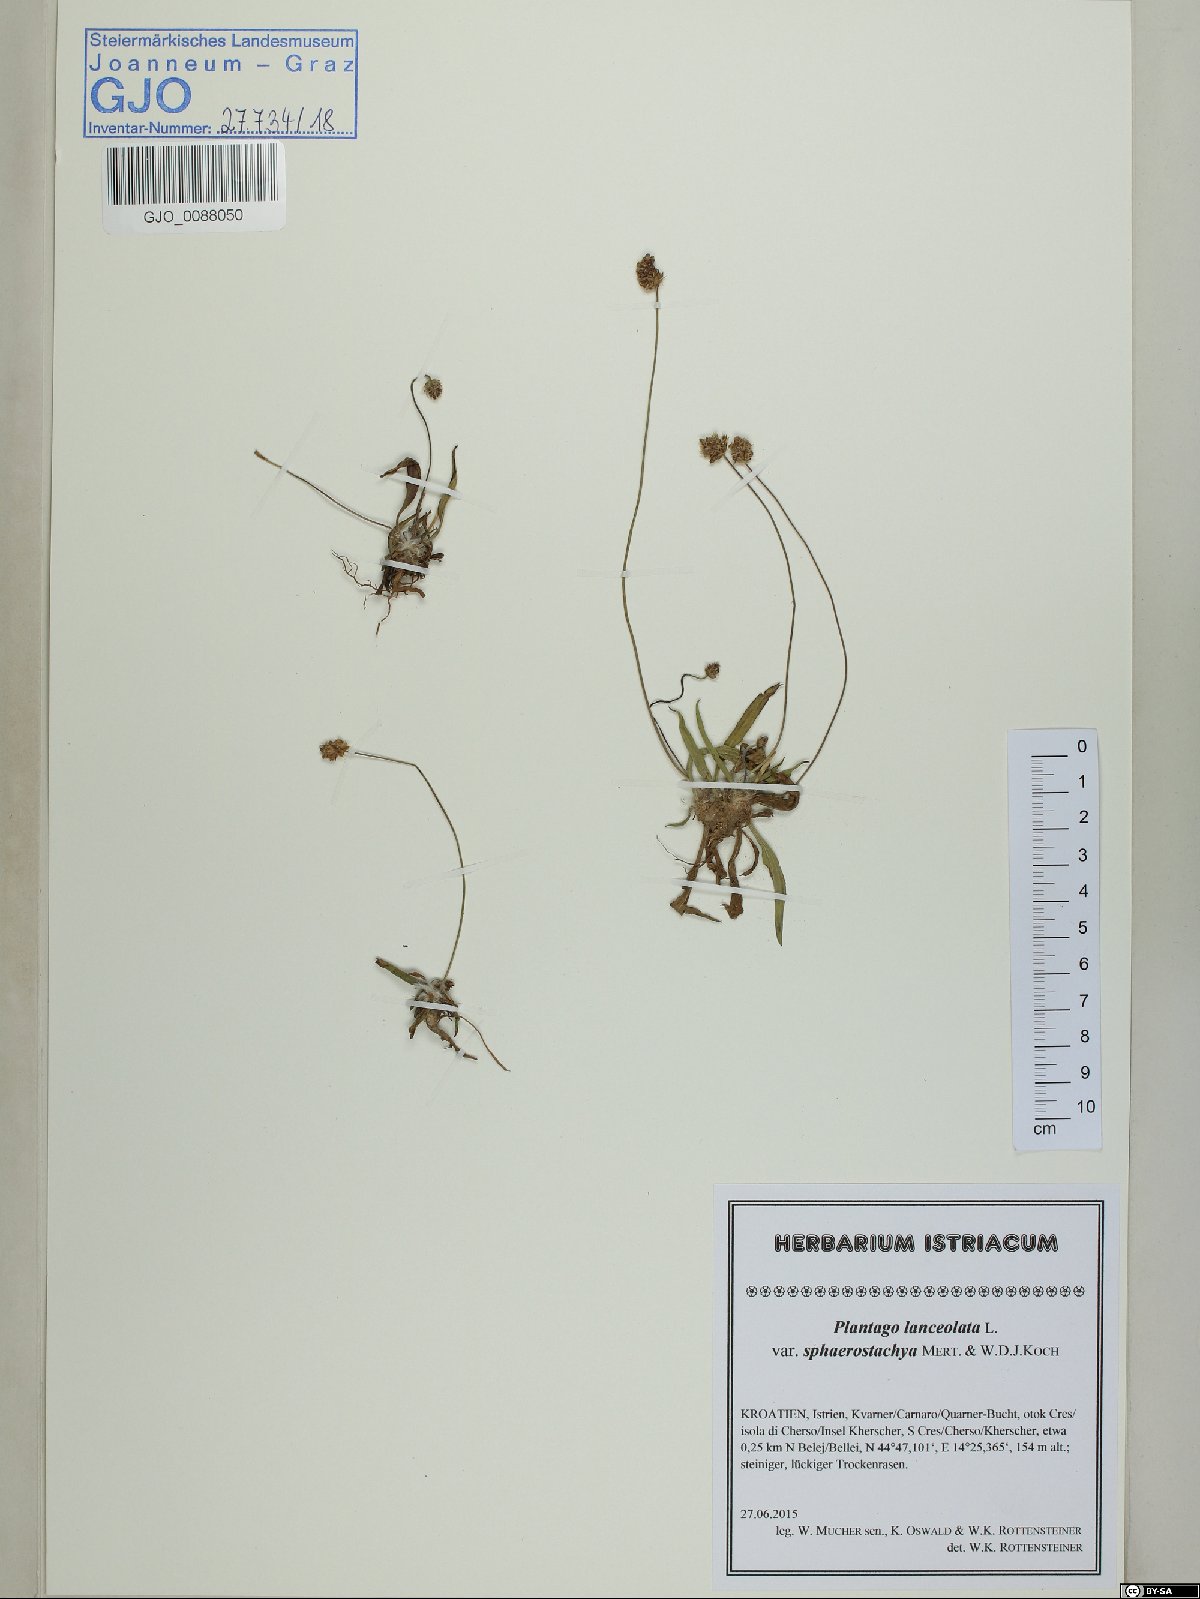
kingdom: Plantae
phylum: Tracheophyta
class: Magnoliopsida
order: Lamiales
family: Plantaginaceae
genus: Plantago
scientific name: Plantago lanceolata
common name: Ribwort plantain
